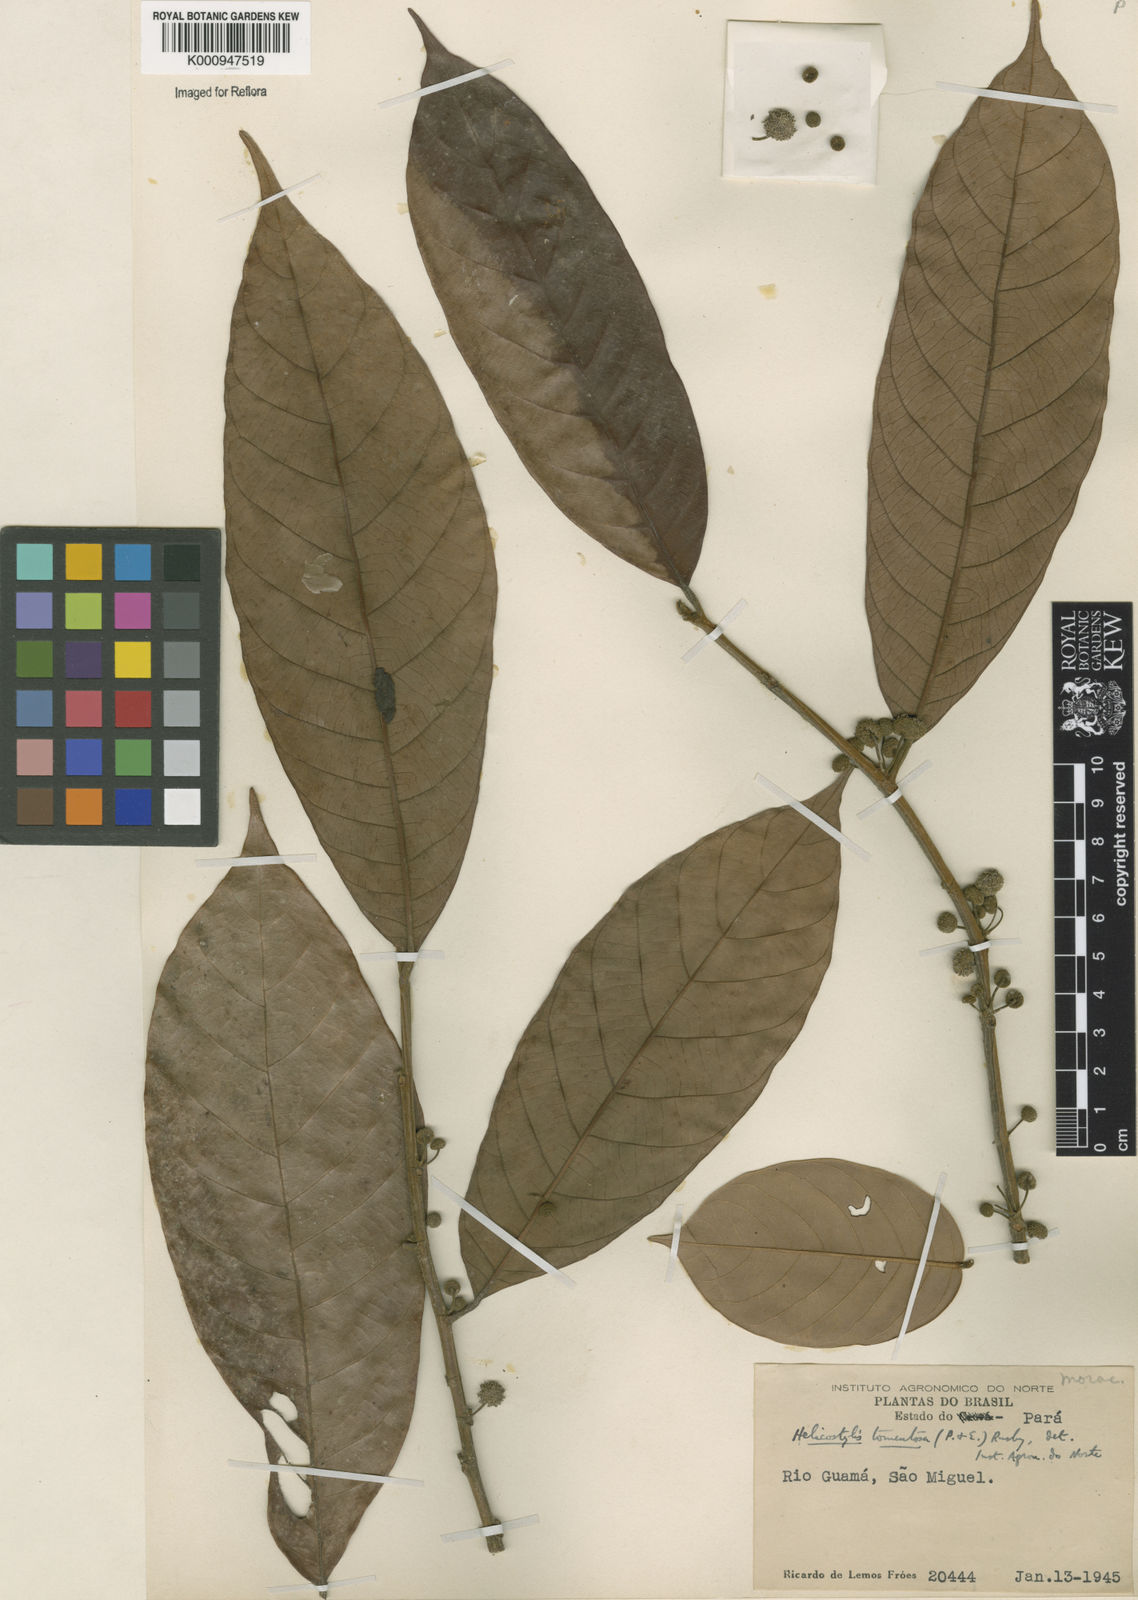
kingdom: Plantae
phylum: Tracheophyta
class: Magnoliopsida
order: Rosales
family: Moraceae
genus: Helicostylis
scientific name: Helicostylis
